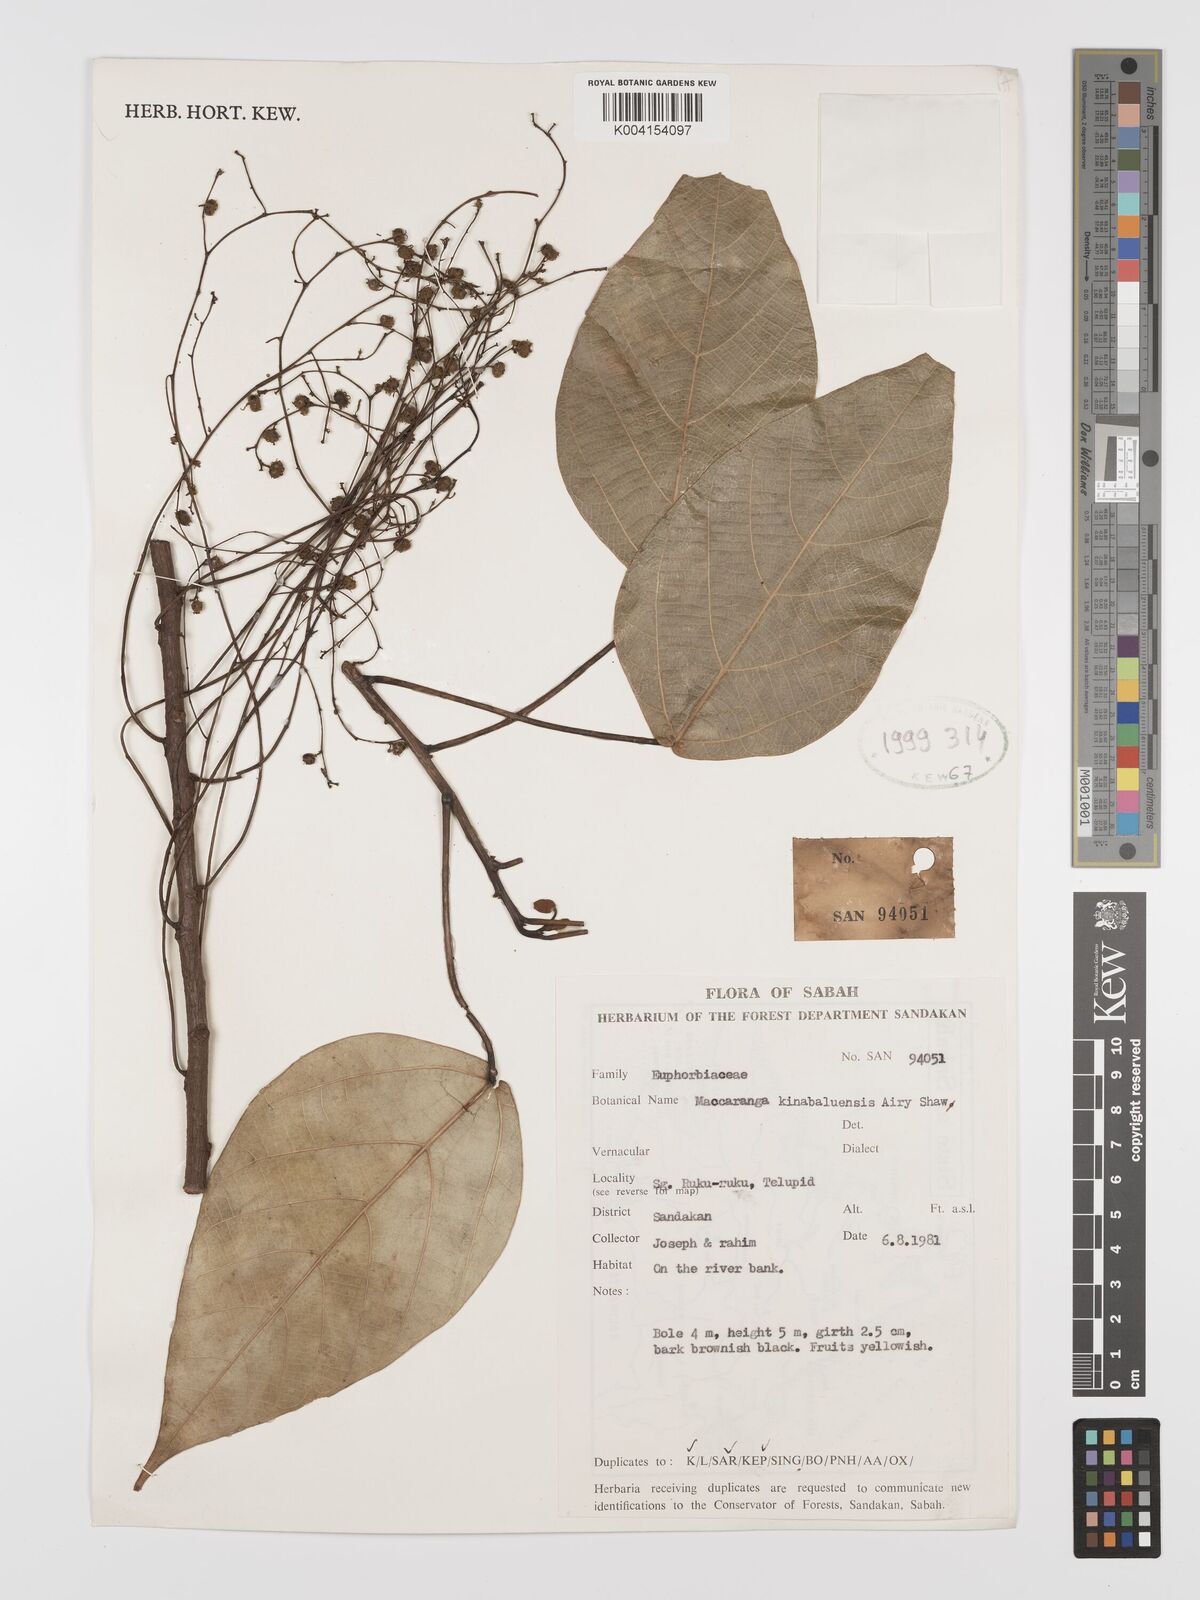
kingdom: Plantae
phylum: Tracheophyta
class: Magnoliopsida
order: Malpighiales
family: Euphorbiaceae
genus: Macaranga
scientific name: Macaranga kinabaluensis
